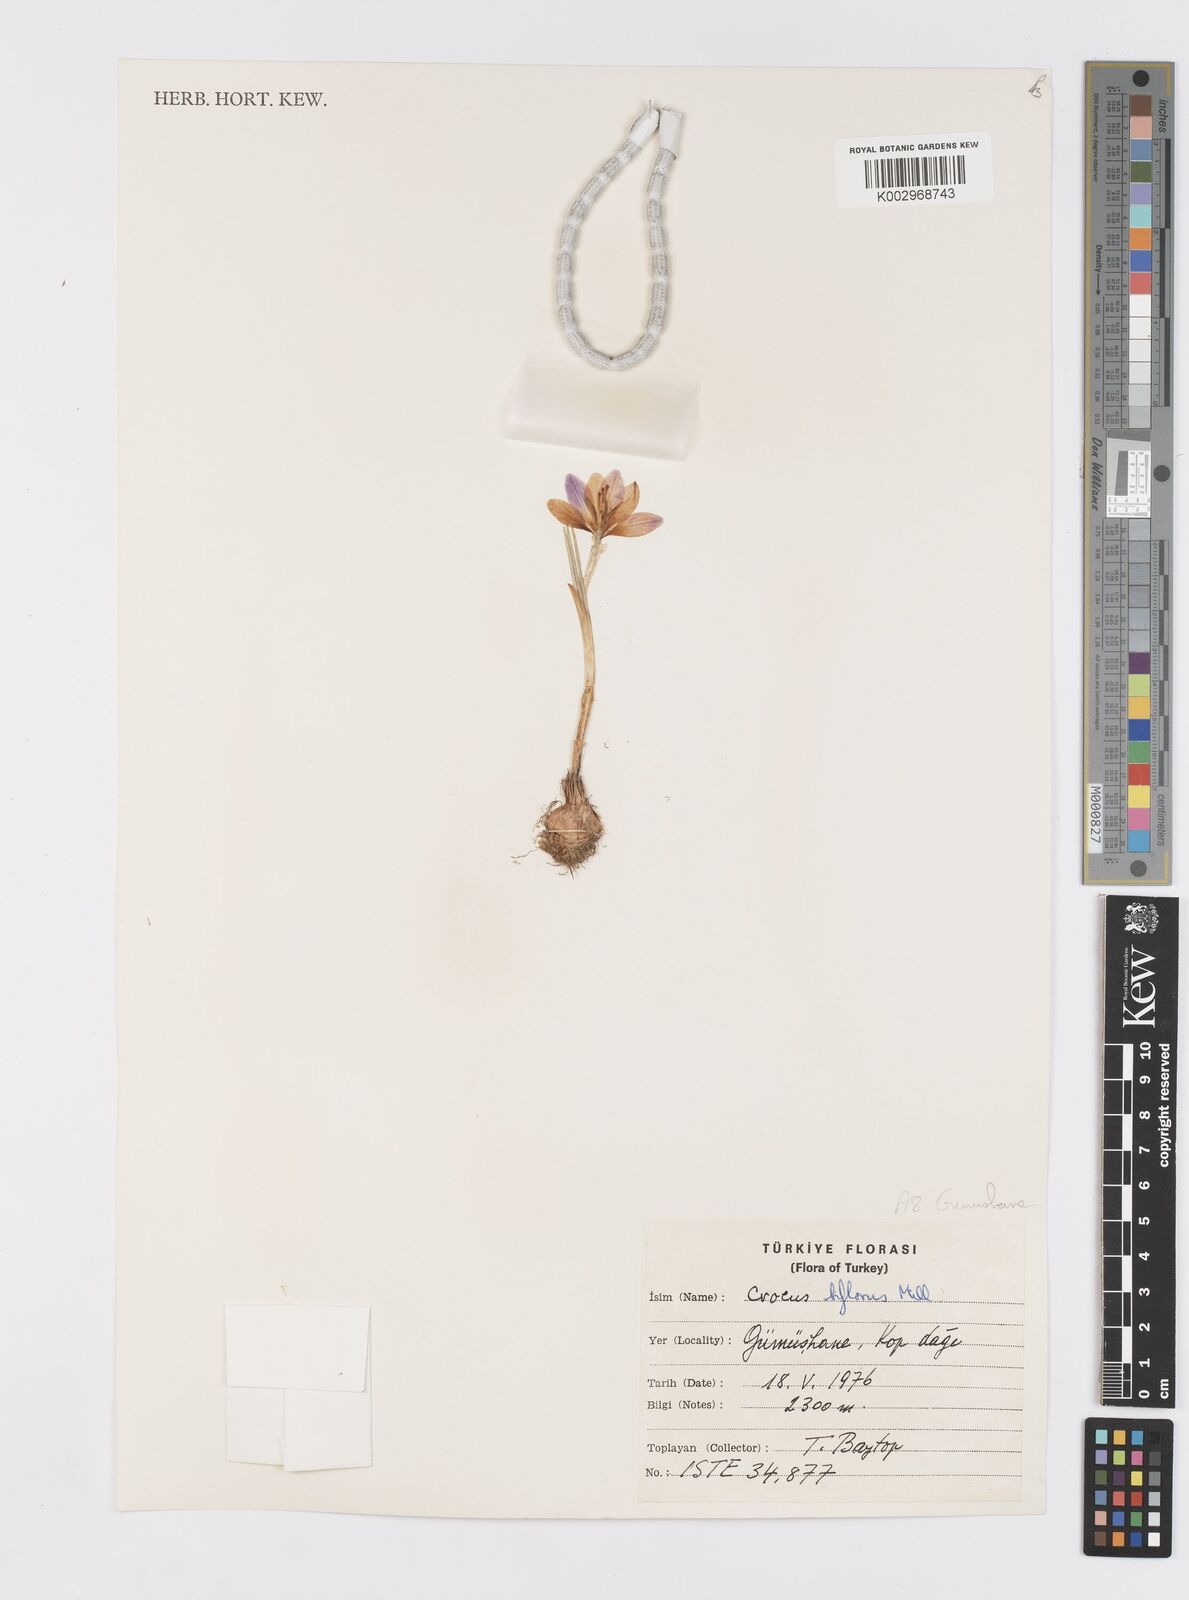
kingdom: Plantae
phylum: Tracheophyta
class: Liliopsida
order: Asparagales
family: Iridaceae
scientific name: Iridaceae
